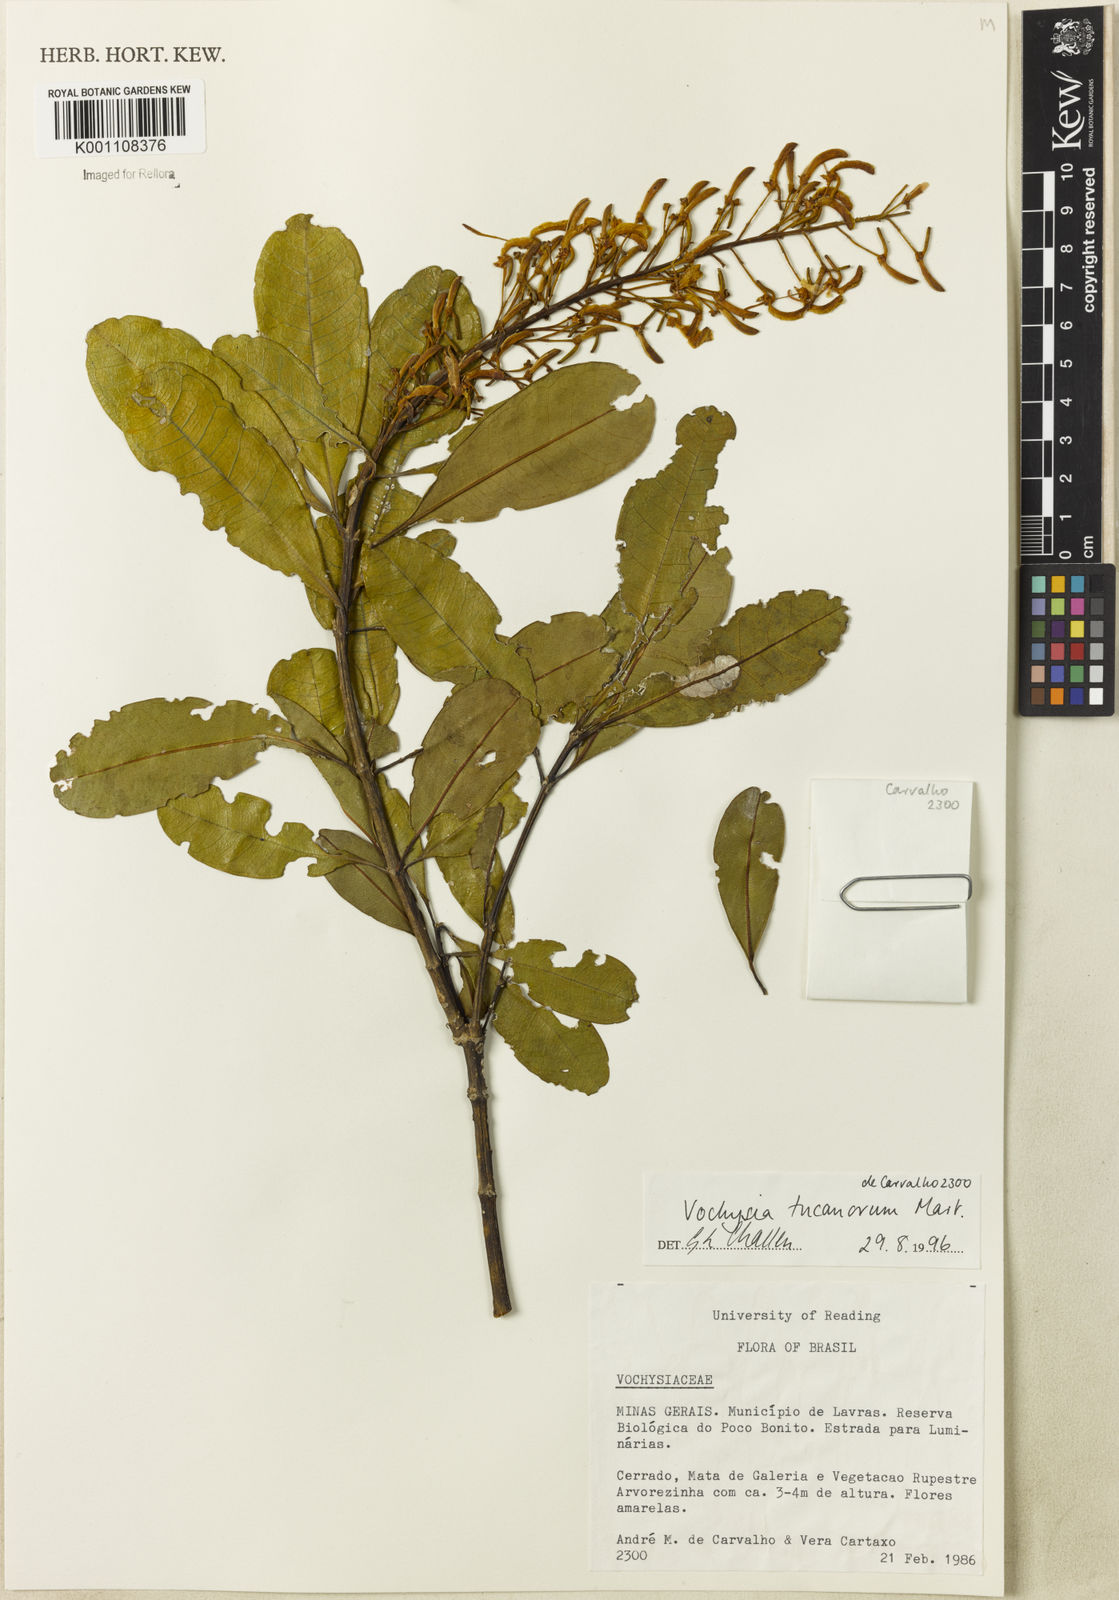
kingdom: Plantae
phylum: Tracheophyta
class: Magnoliopsida
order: Myrtales
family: Vochysiaceae
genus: Vochysia
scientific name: Vochysia tucanorum
